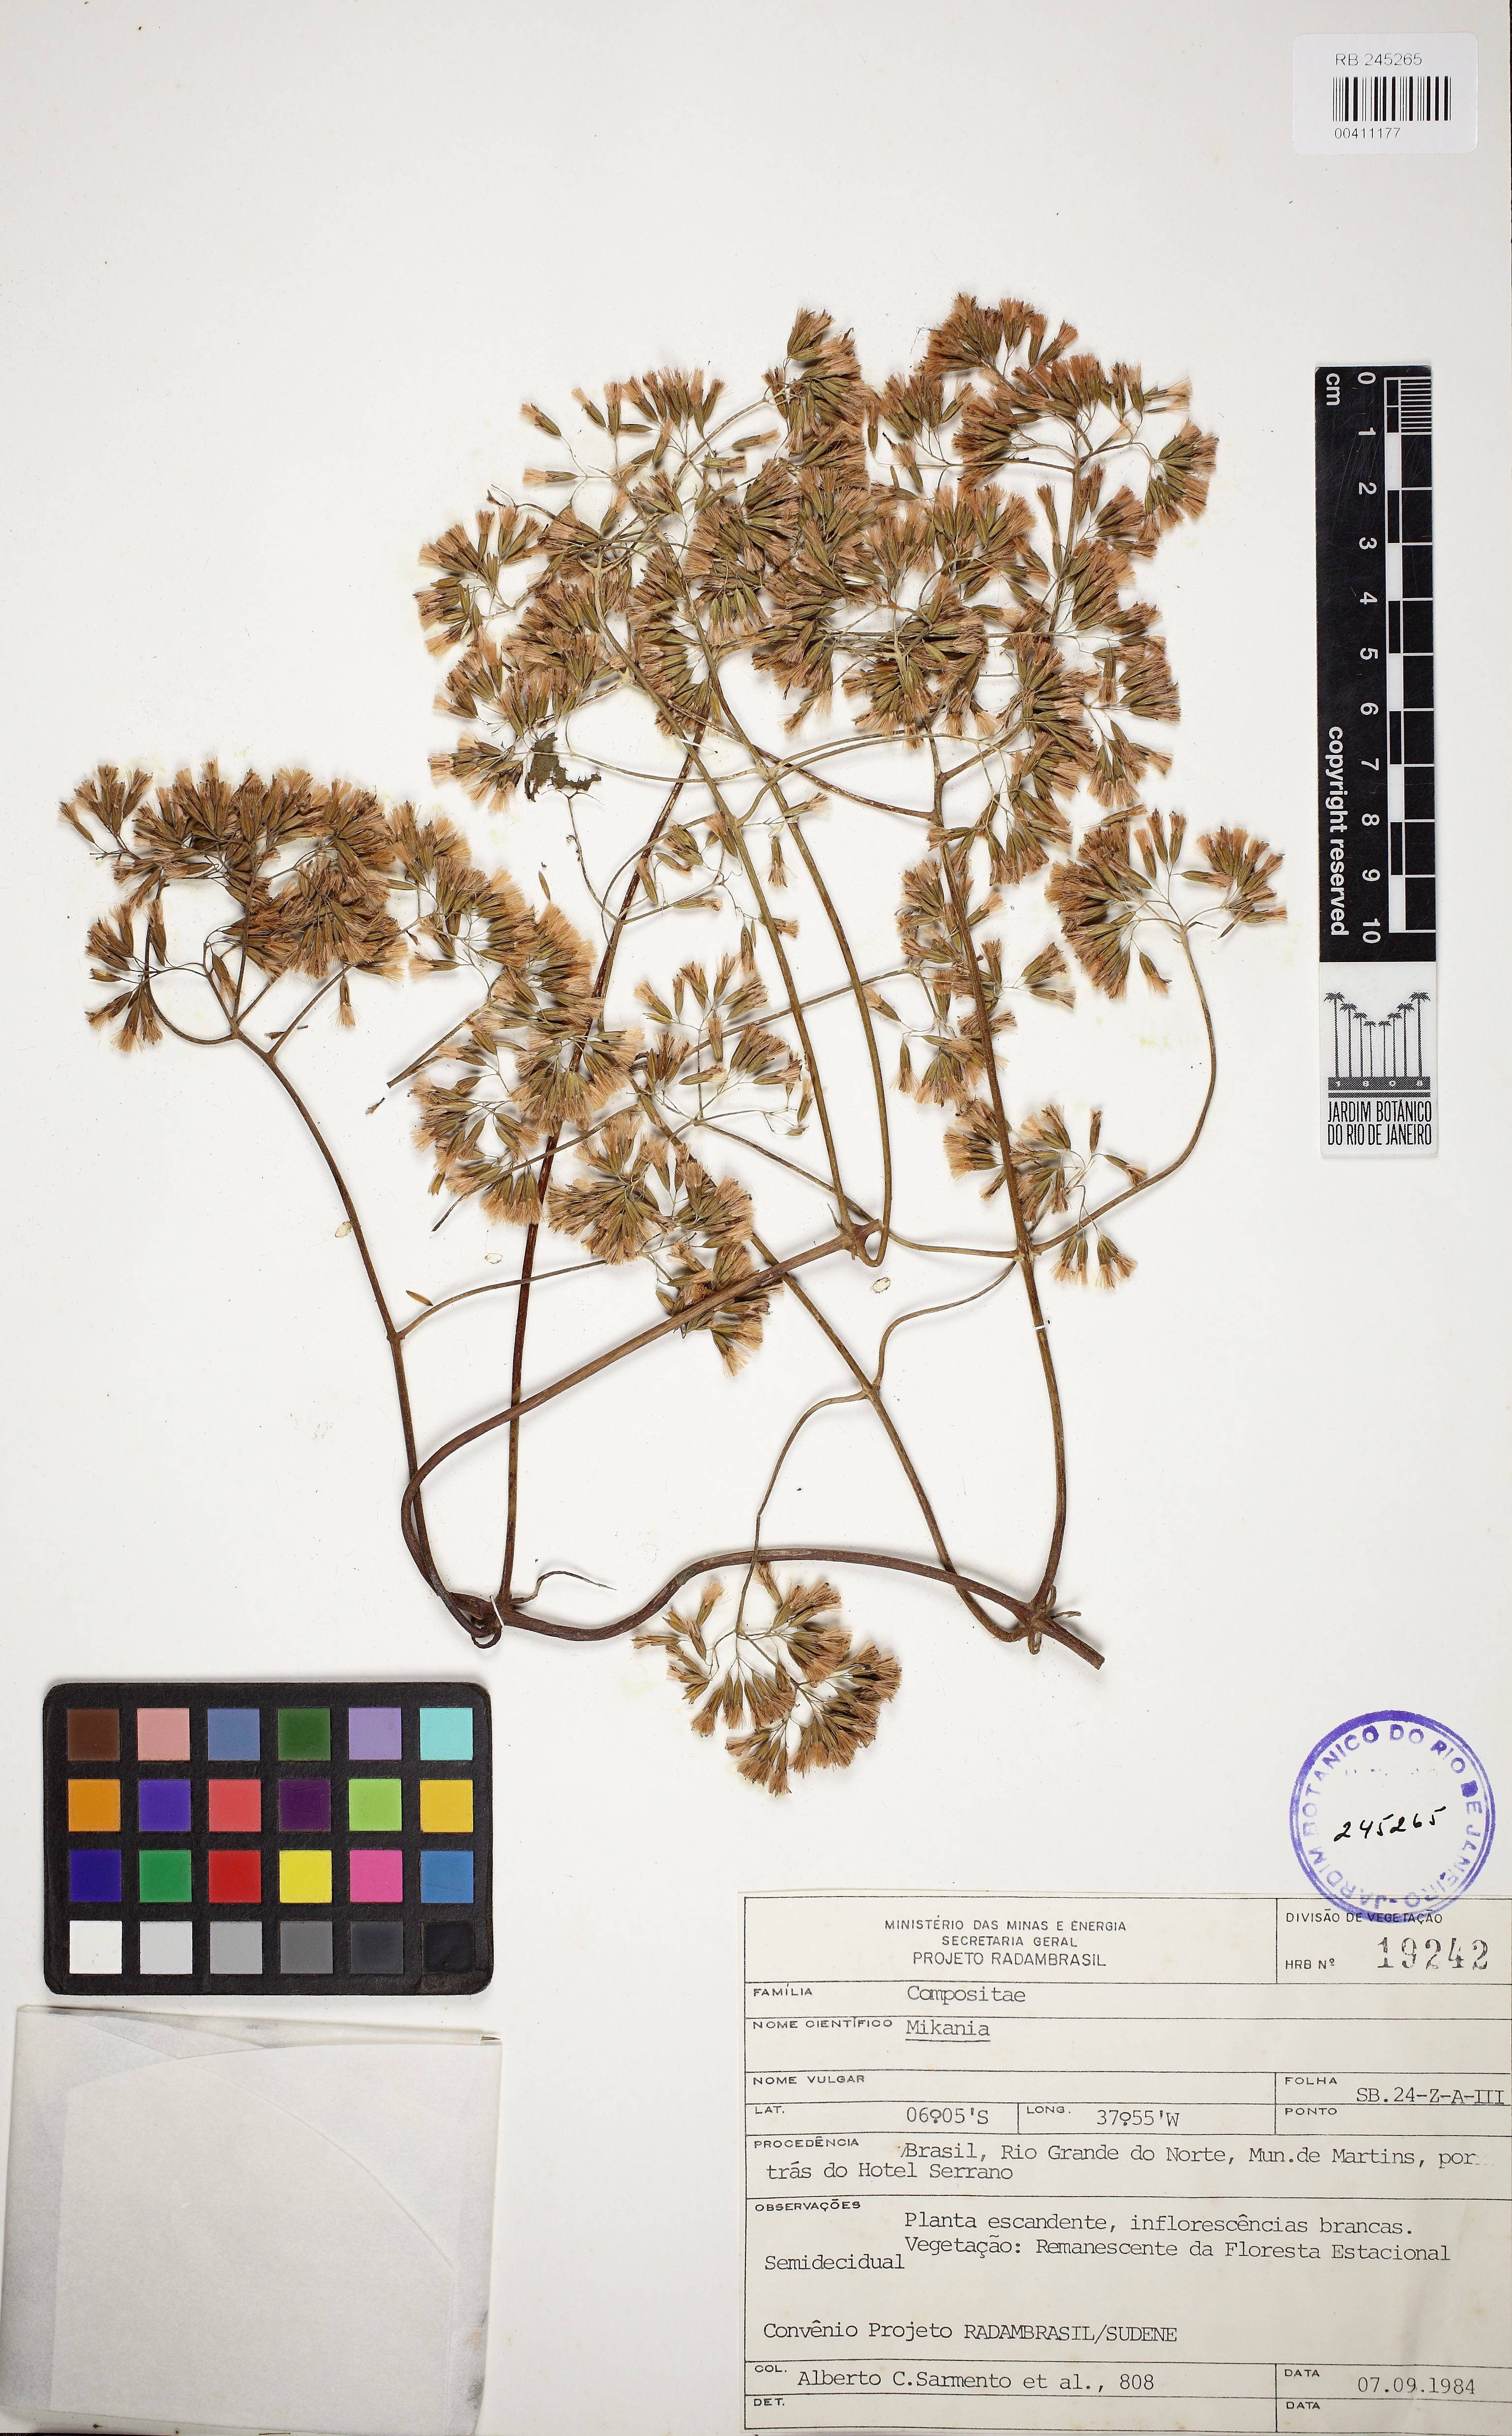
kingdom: Plantae
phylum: Tracheophyta
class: Magnoliopsida
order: Asterales
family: Asteraceae
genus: Mikania
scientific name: Mikania
